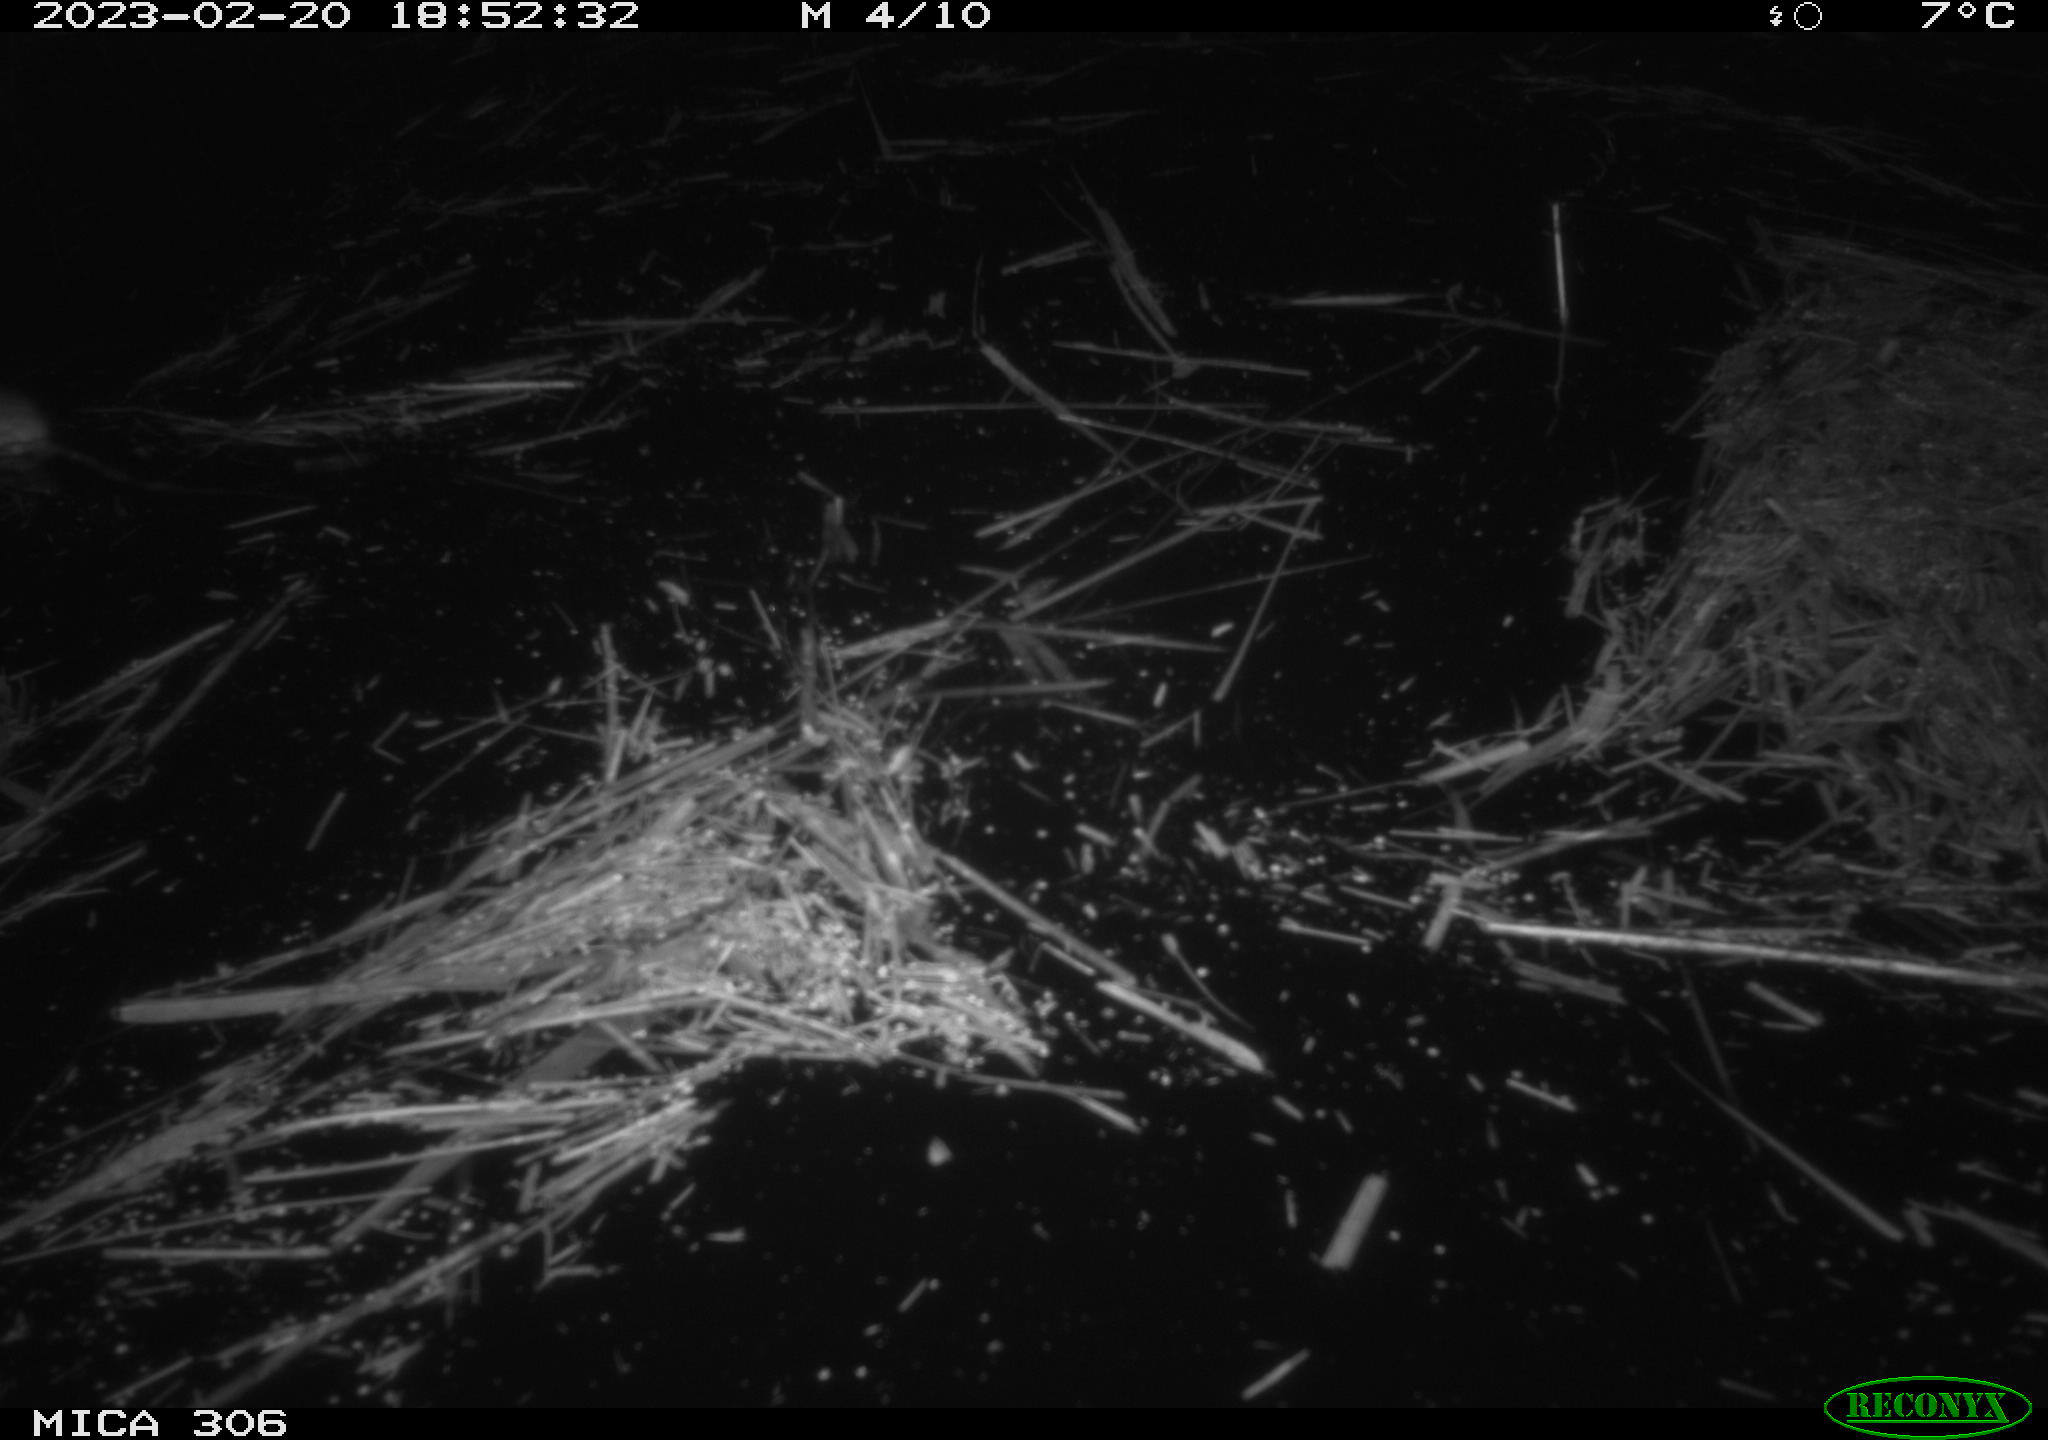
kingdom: Animalia
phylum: Chordata
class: Mammalia
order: Rodentia
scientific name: Rodentia
